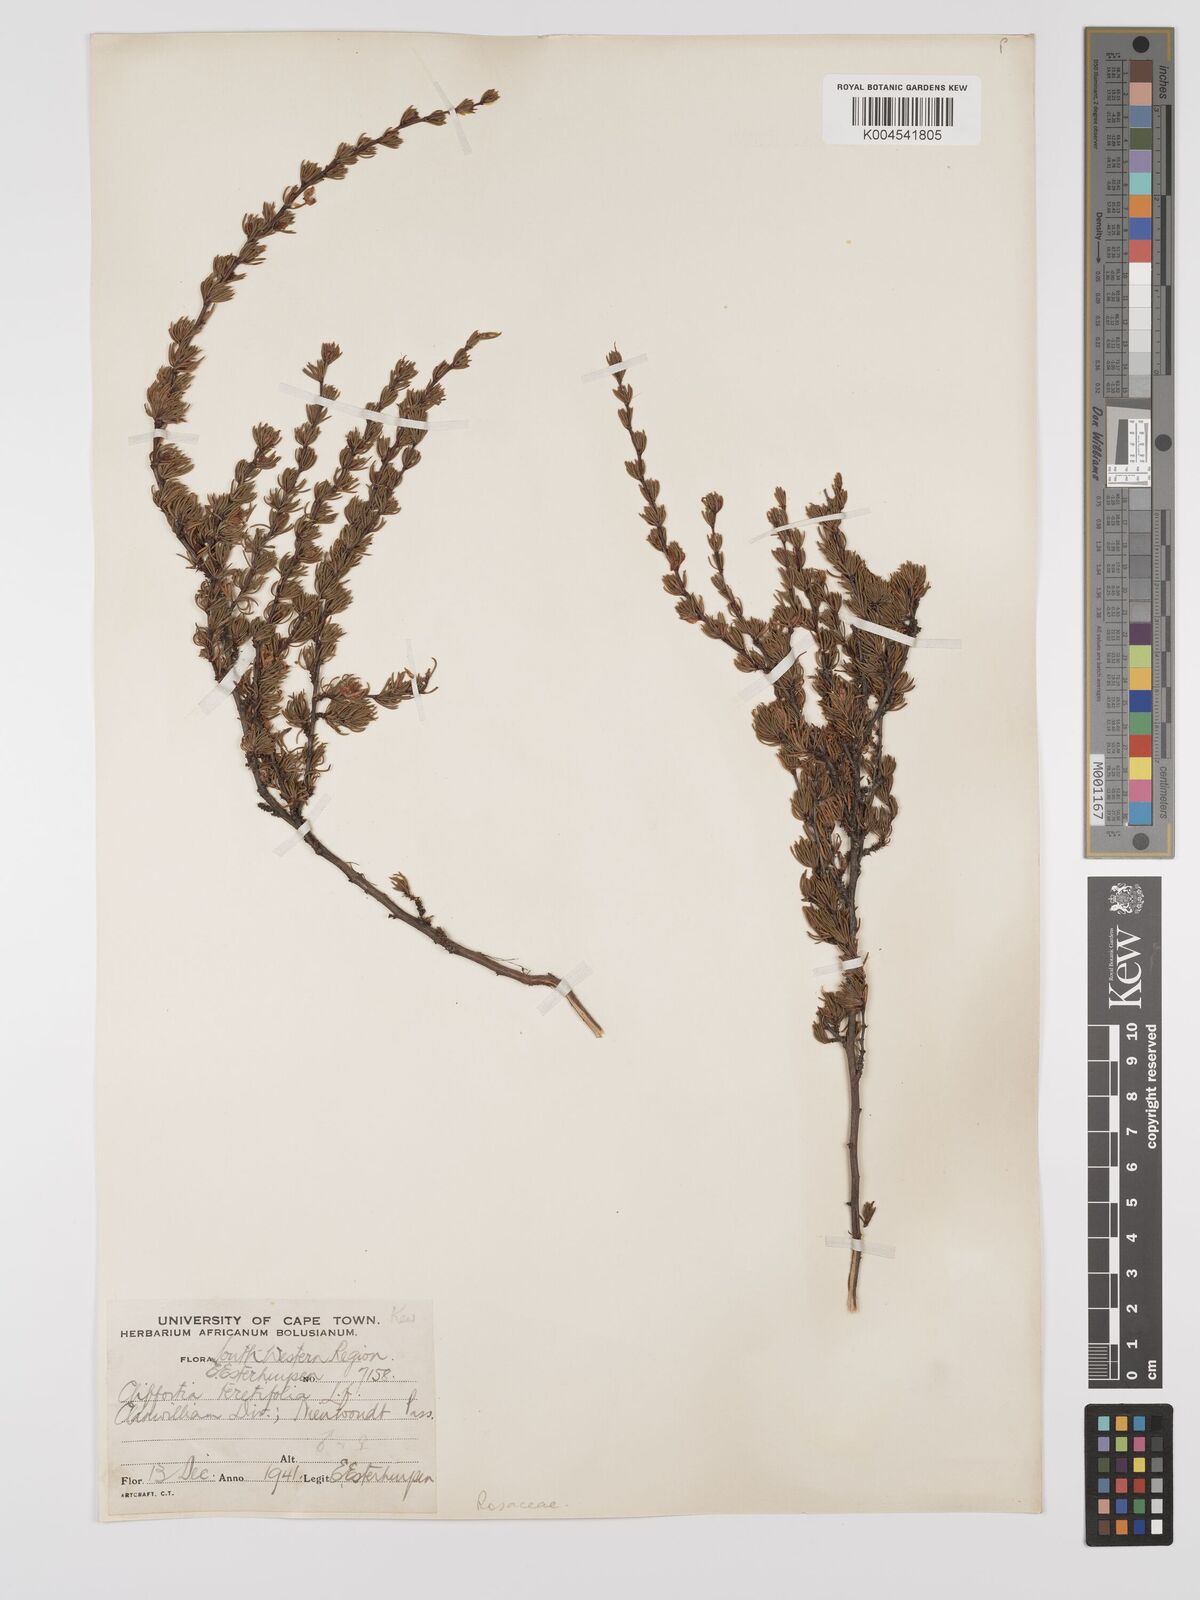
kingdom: Plantae
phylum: Tracheophyta
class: Magnoliopsida
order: Rosales
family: Rosaceae
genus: Cliffortia
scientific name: Cliffortia teretifolia
